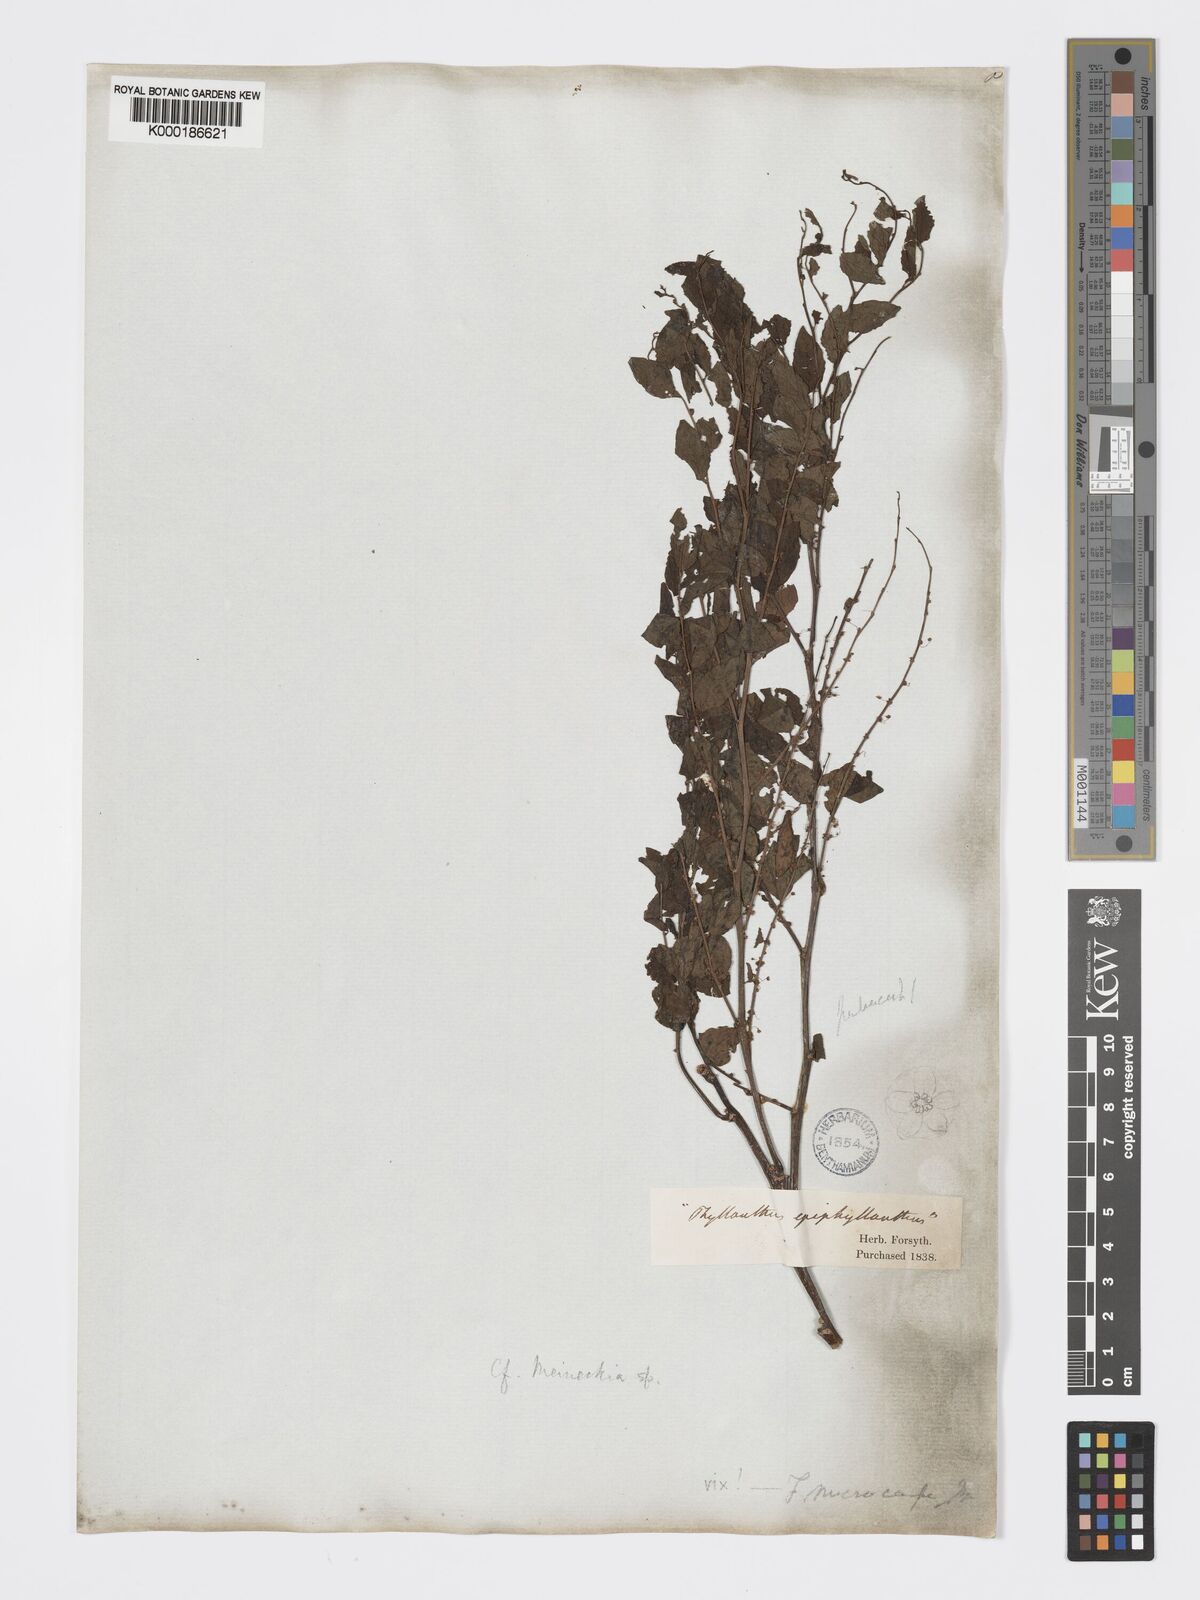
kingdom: Plantae
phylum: Tracheophyta
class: Magnoliopsida
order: Malpighiales
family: Phyllanthaceae
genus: Meineckia
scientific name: Meineckia
